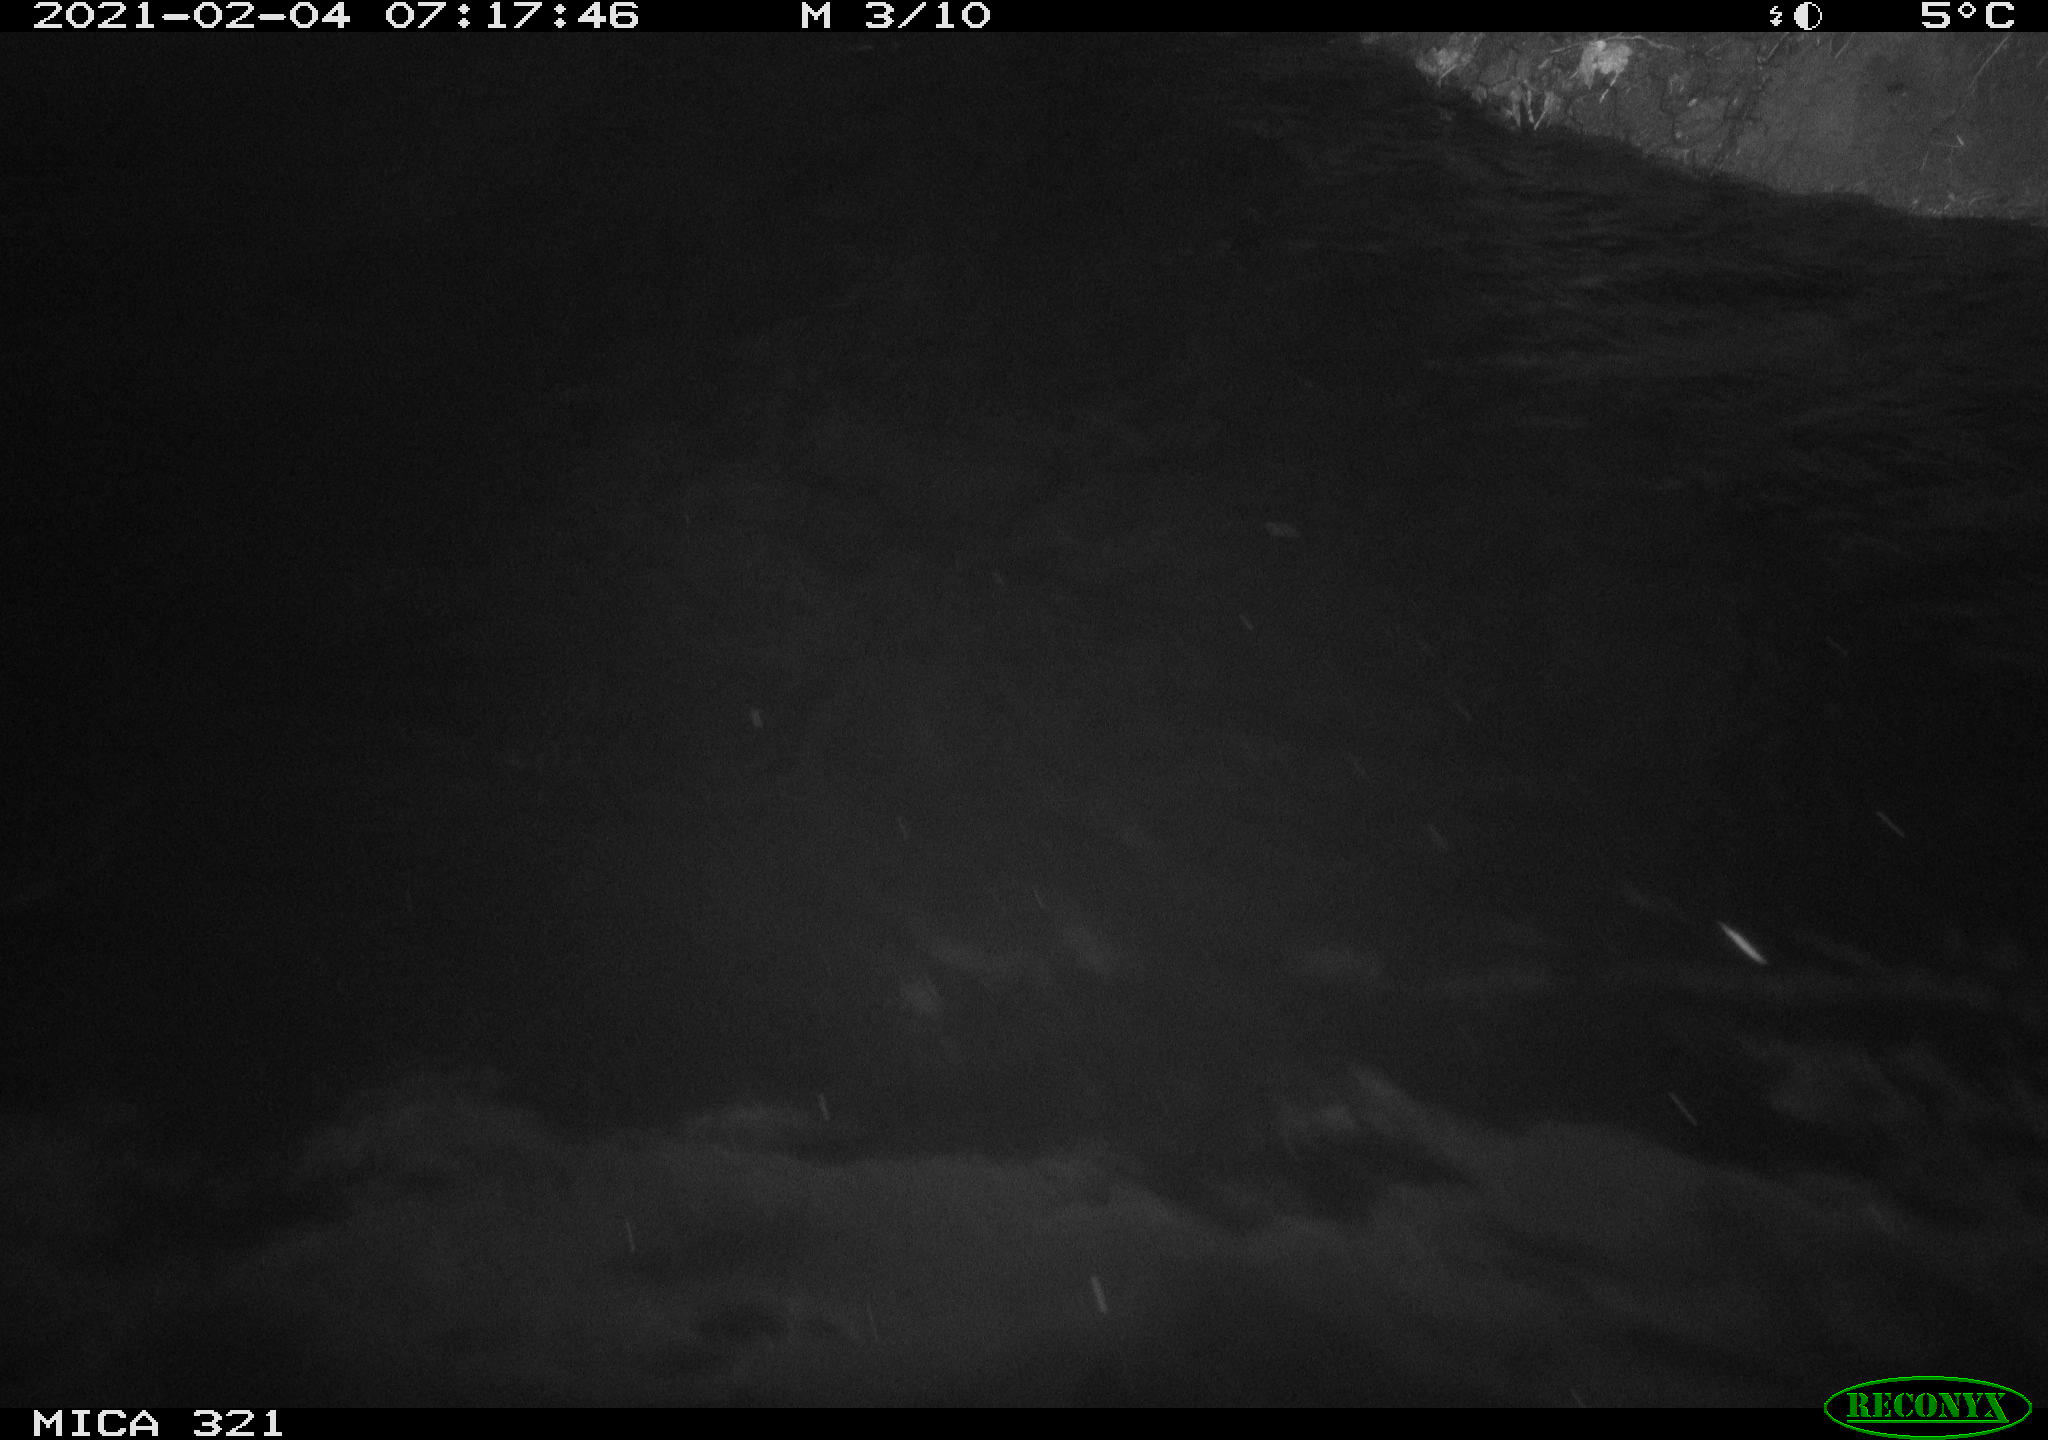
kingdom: Animalia
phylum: Chordata
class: Aves
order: Anseriformes
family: Anatidae
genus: Anas
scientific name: Anas platyrhynchos
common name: Mallard
